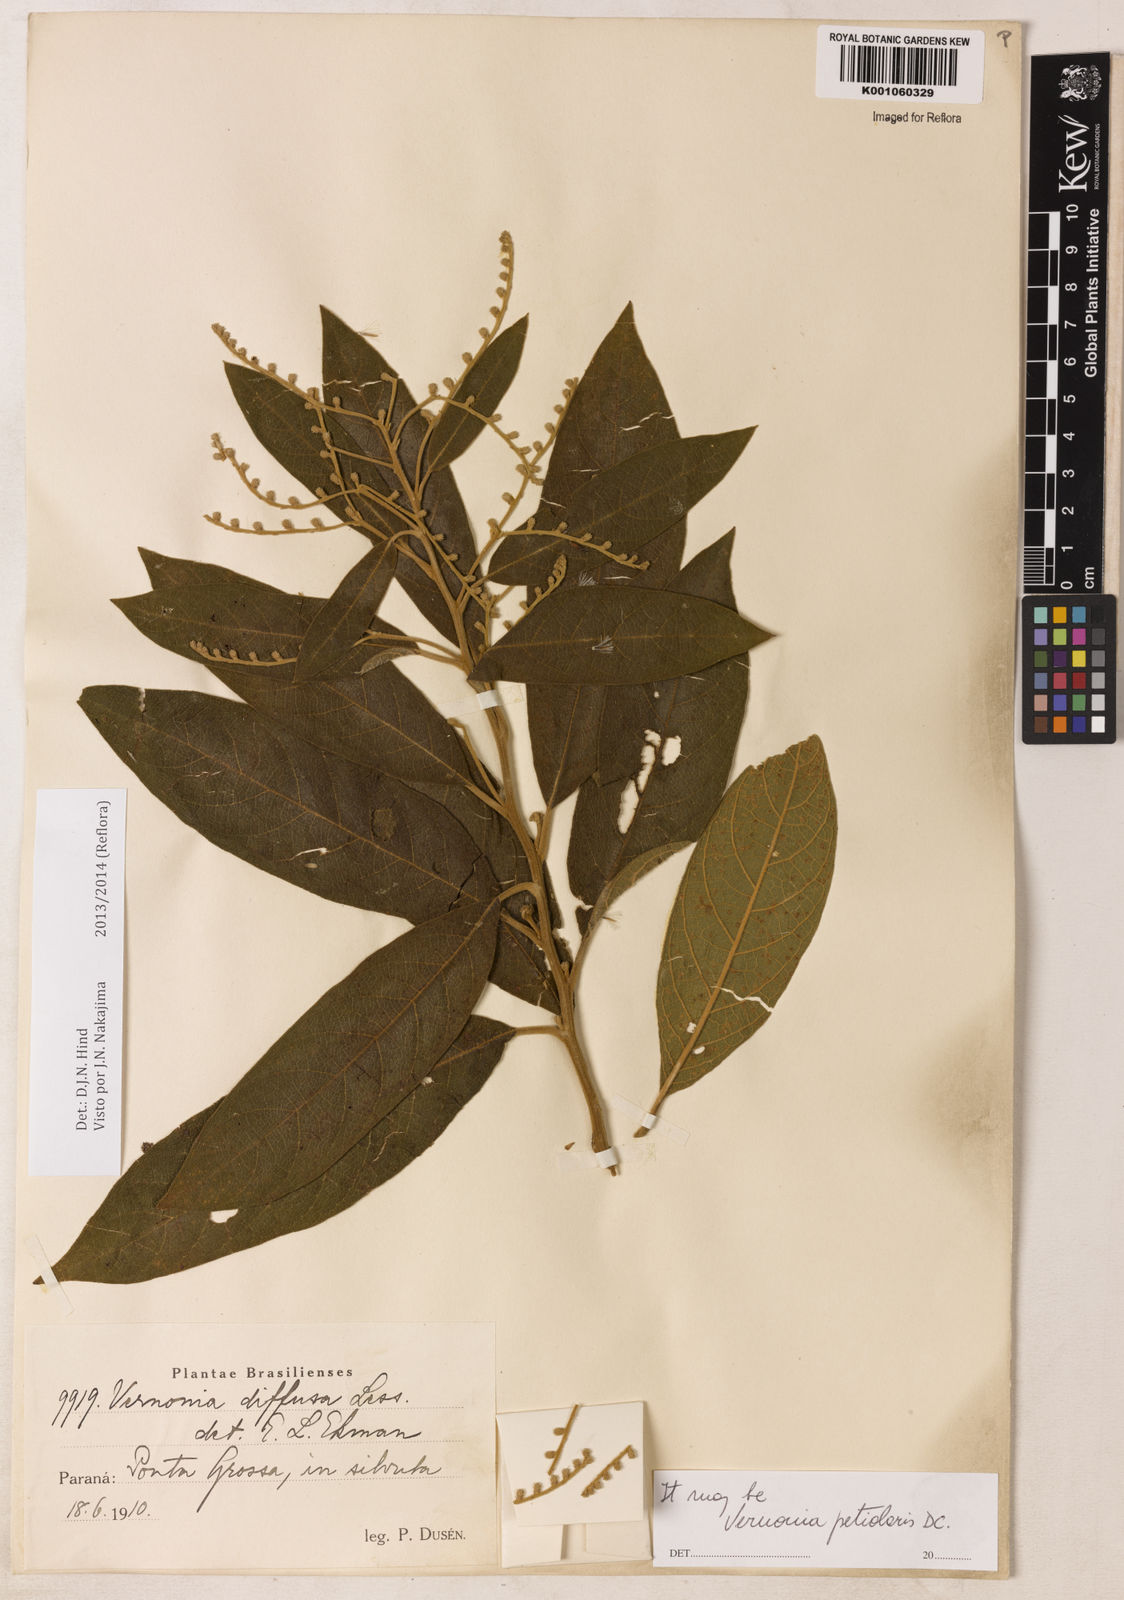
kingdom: Plantae
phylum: Tracheophyta
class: Magnoliopsida
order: Asterales
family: Asteraceae
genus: Vernonanthura
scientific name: Vernonanthura petiolaris
